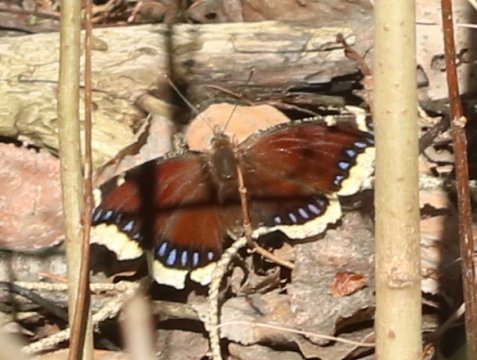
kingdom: Animalia
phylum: Arthropoda
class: Insecta
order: Lepidoptera
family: Nymphalidae
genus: Nymphalis
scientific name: Nymphalis antiopa
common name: Mourning Cloak
